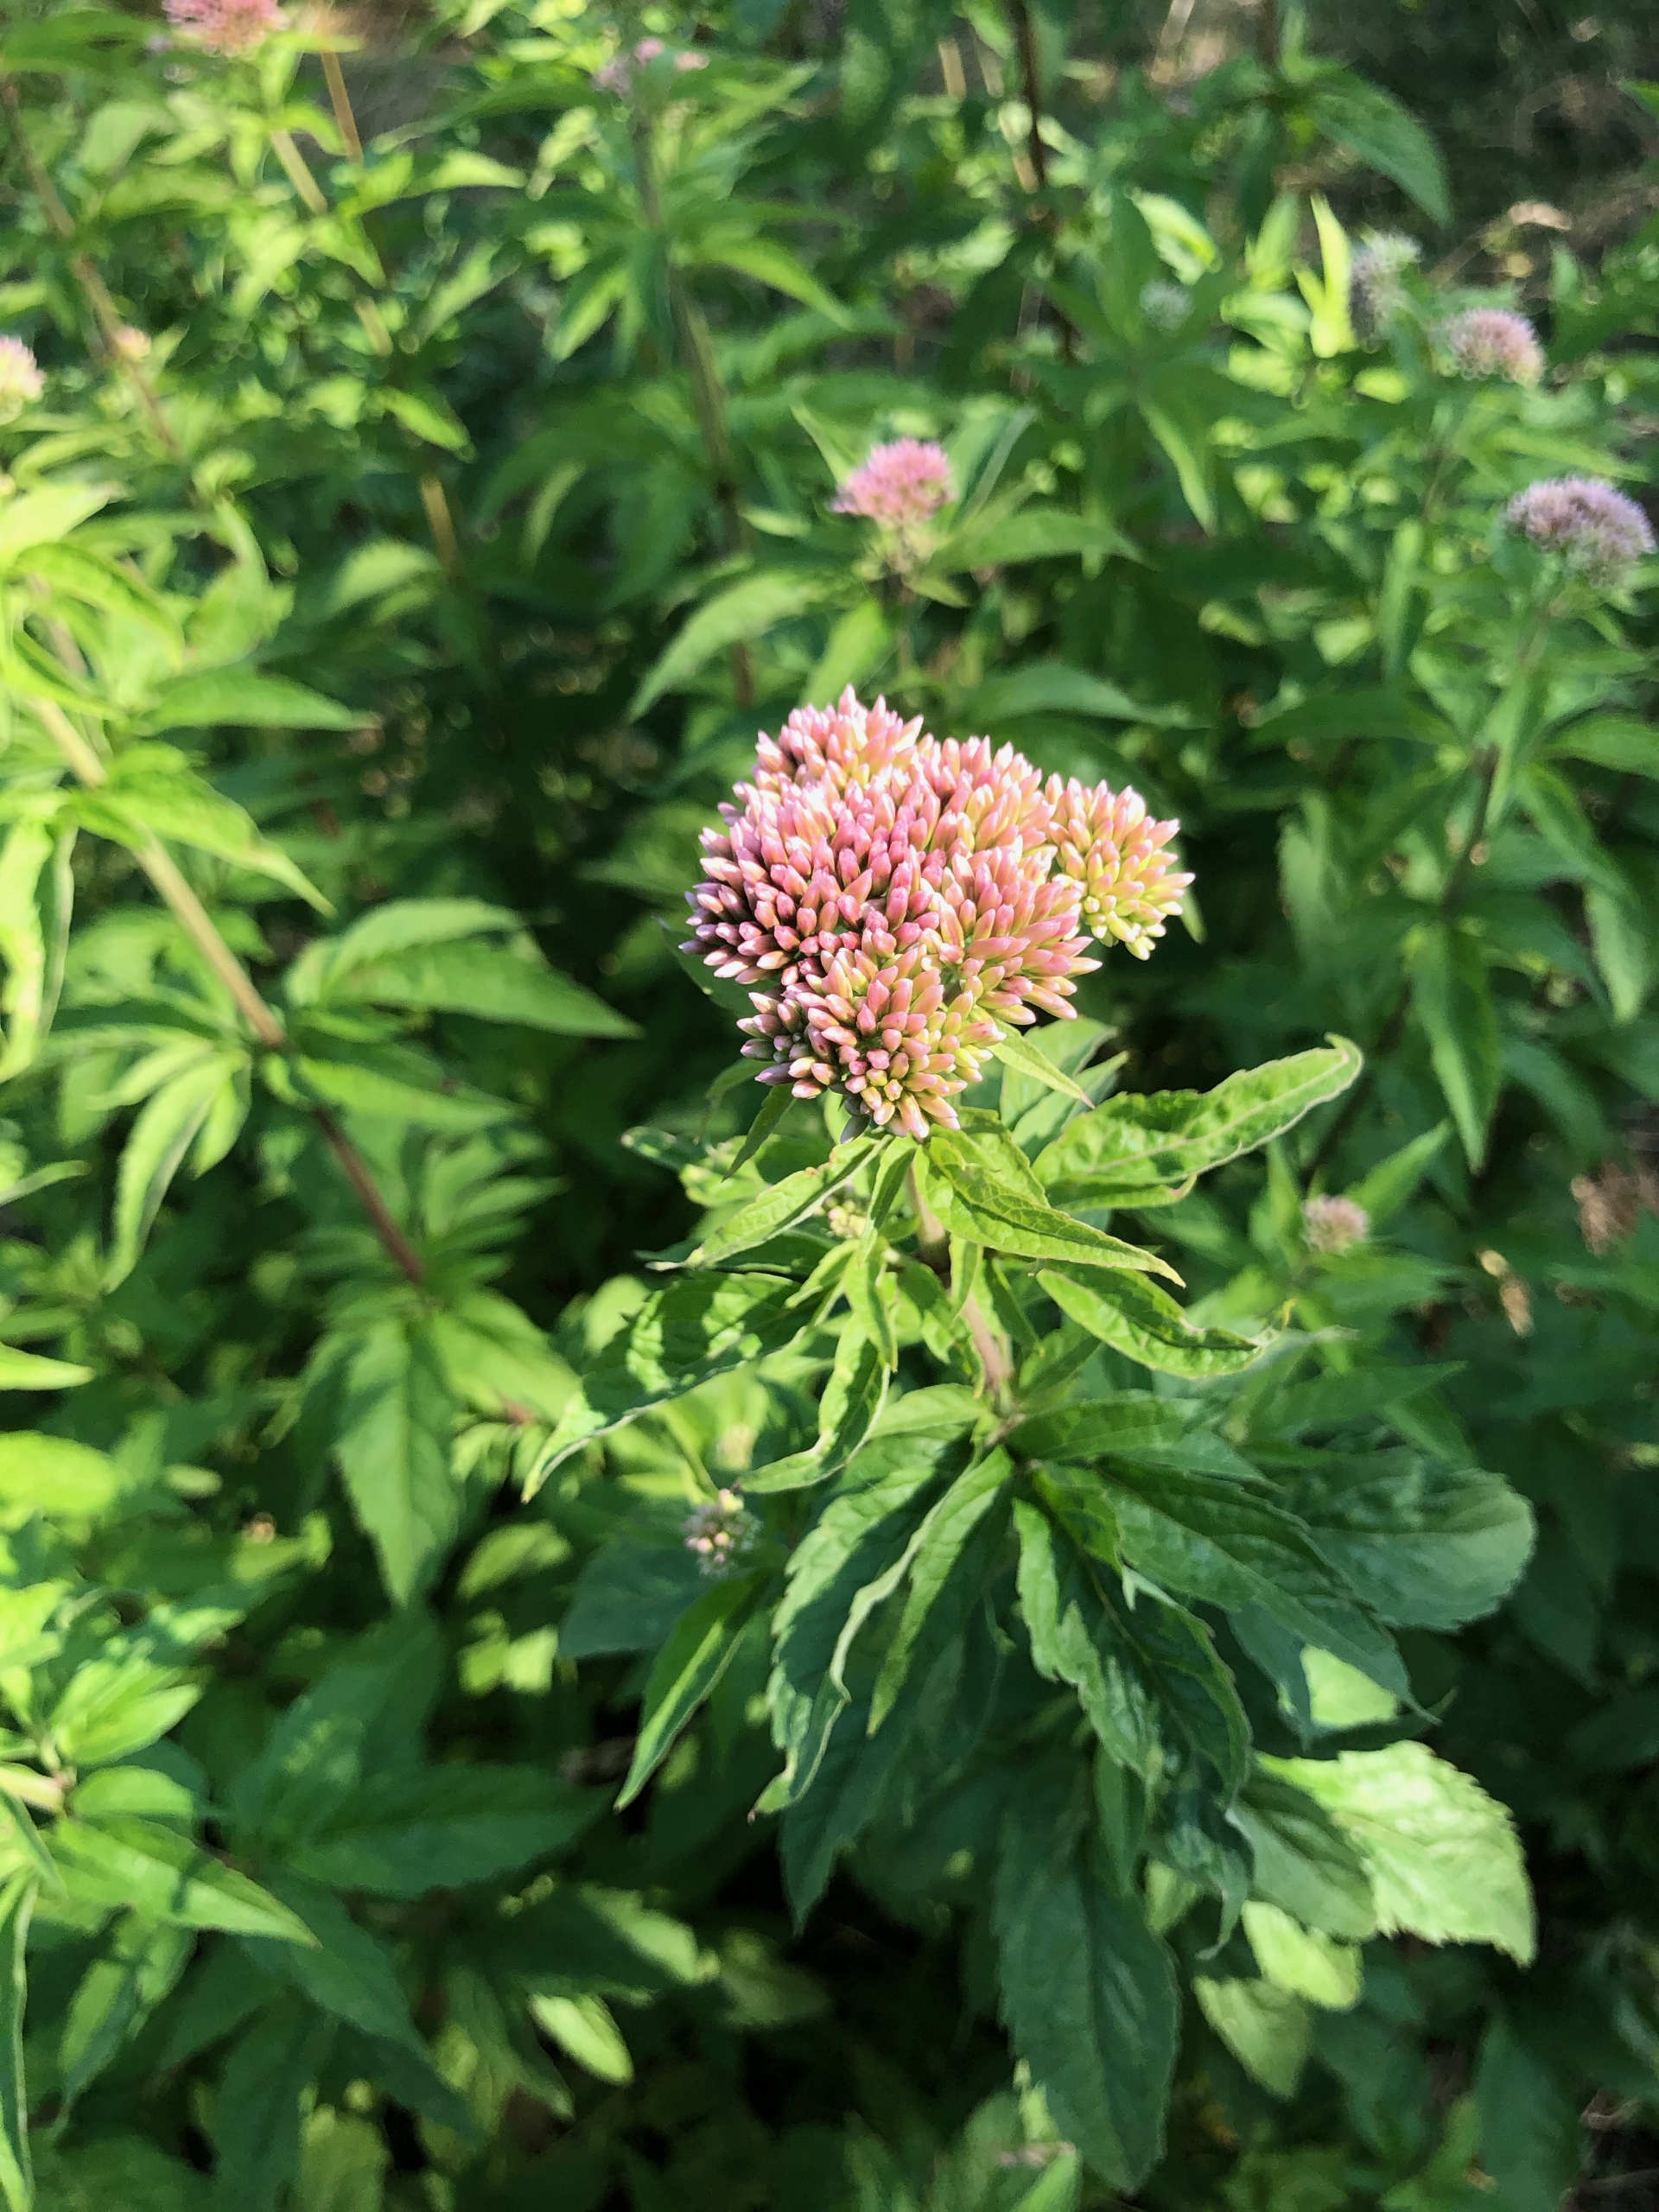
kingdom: Plantae
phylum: Tracheophyta
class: Magnoliopsida
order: Asterales
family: Asteraceae
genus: Eupatorium
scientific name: Eupatorium cannabinum
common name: Hjortetrøst
